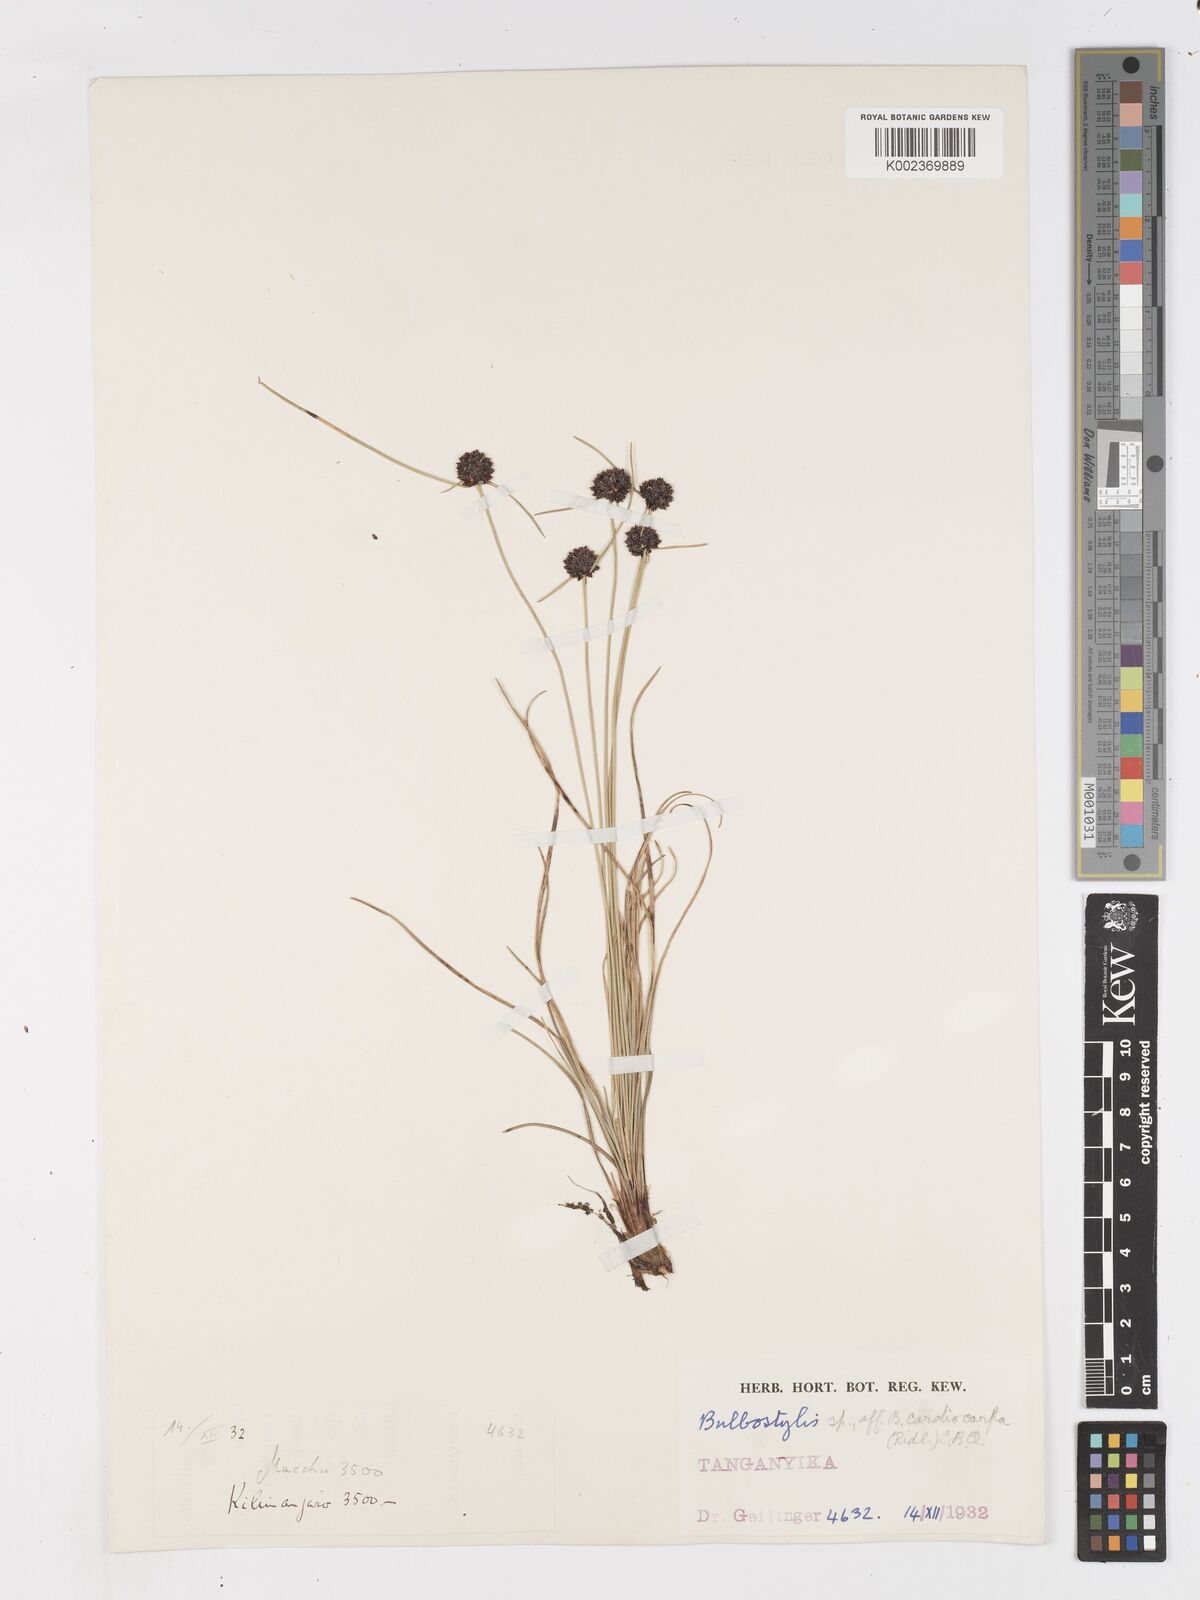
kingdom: Plantae
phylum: Tracheophyta
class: Liliopsida
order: Poales
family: Cyperaceae
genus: Ficinia
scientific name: Ficinia gracilis
